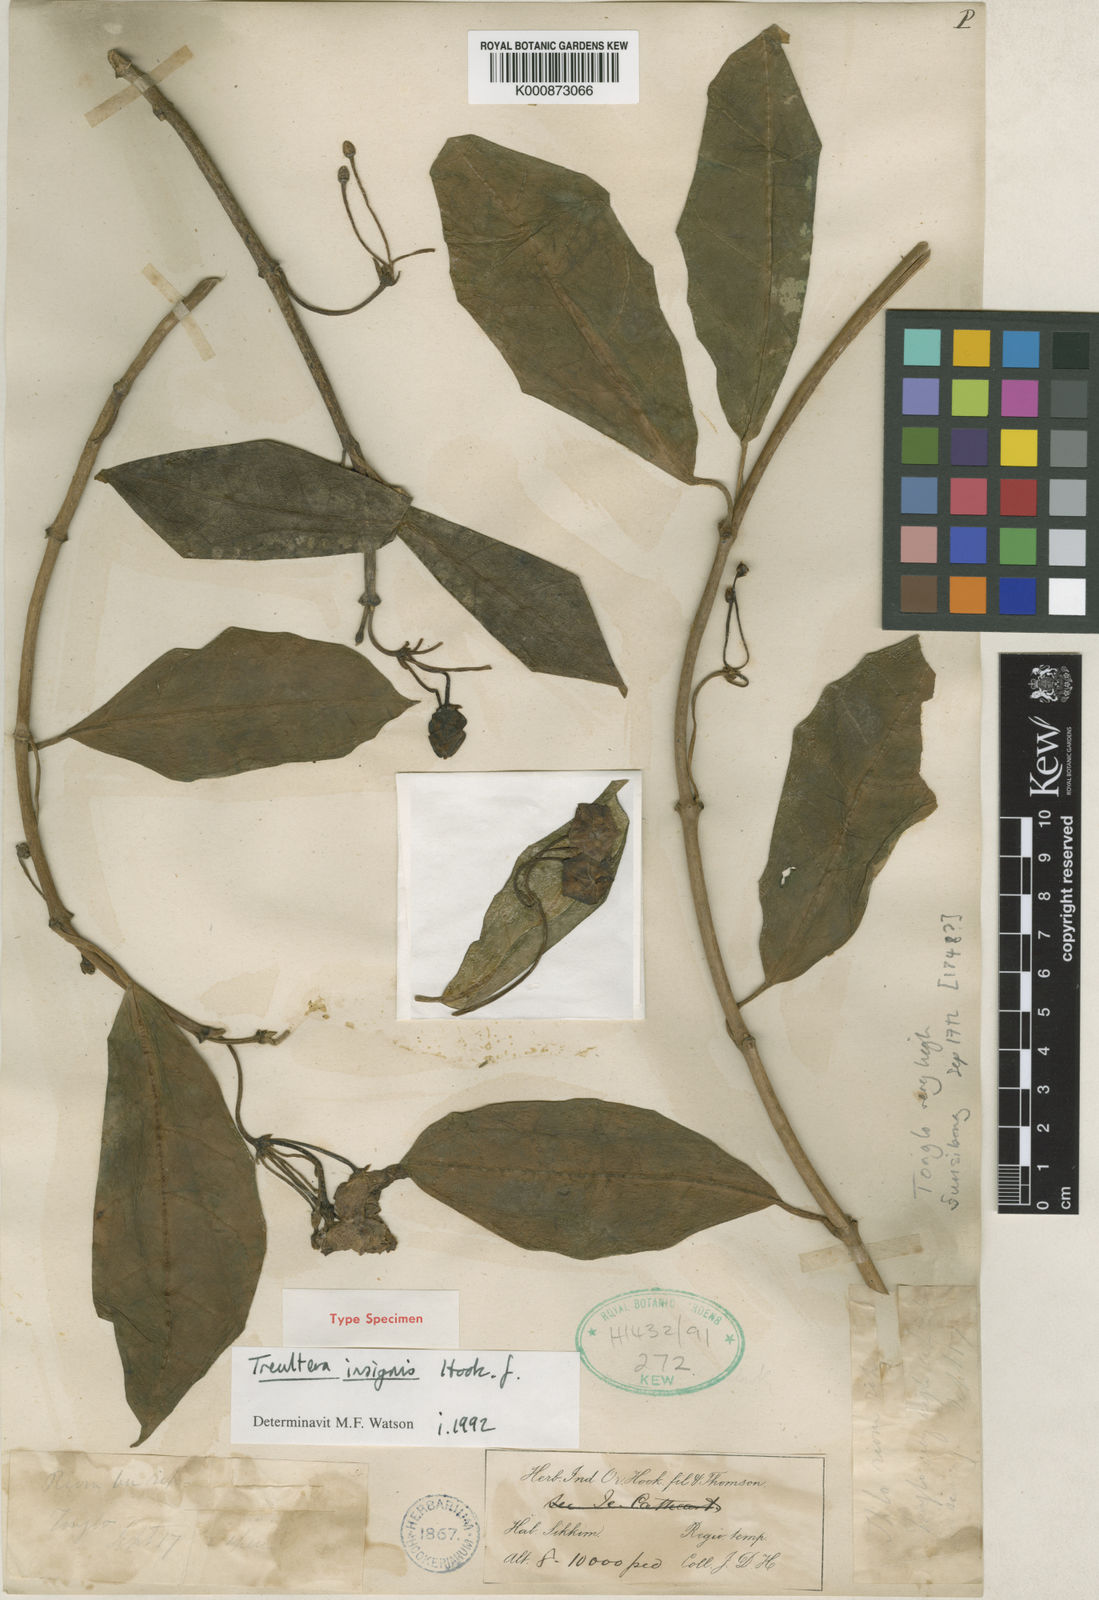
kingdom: Plantae
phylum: Tracheophyta
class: Magnoliopsida
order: Gentianales
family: Apocynaceae
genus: Treutlera
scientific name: Treutlera insignis
